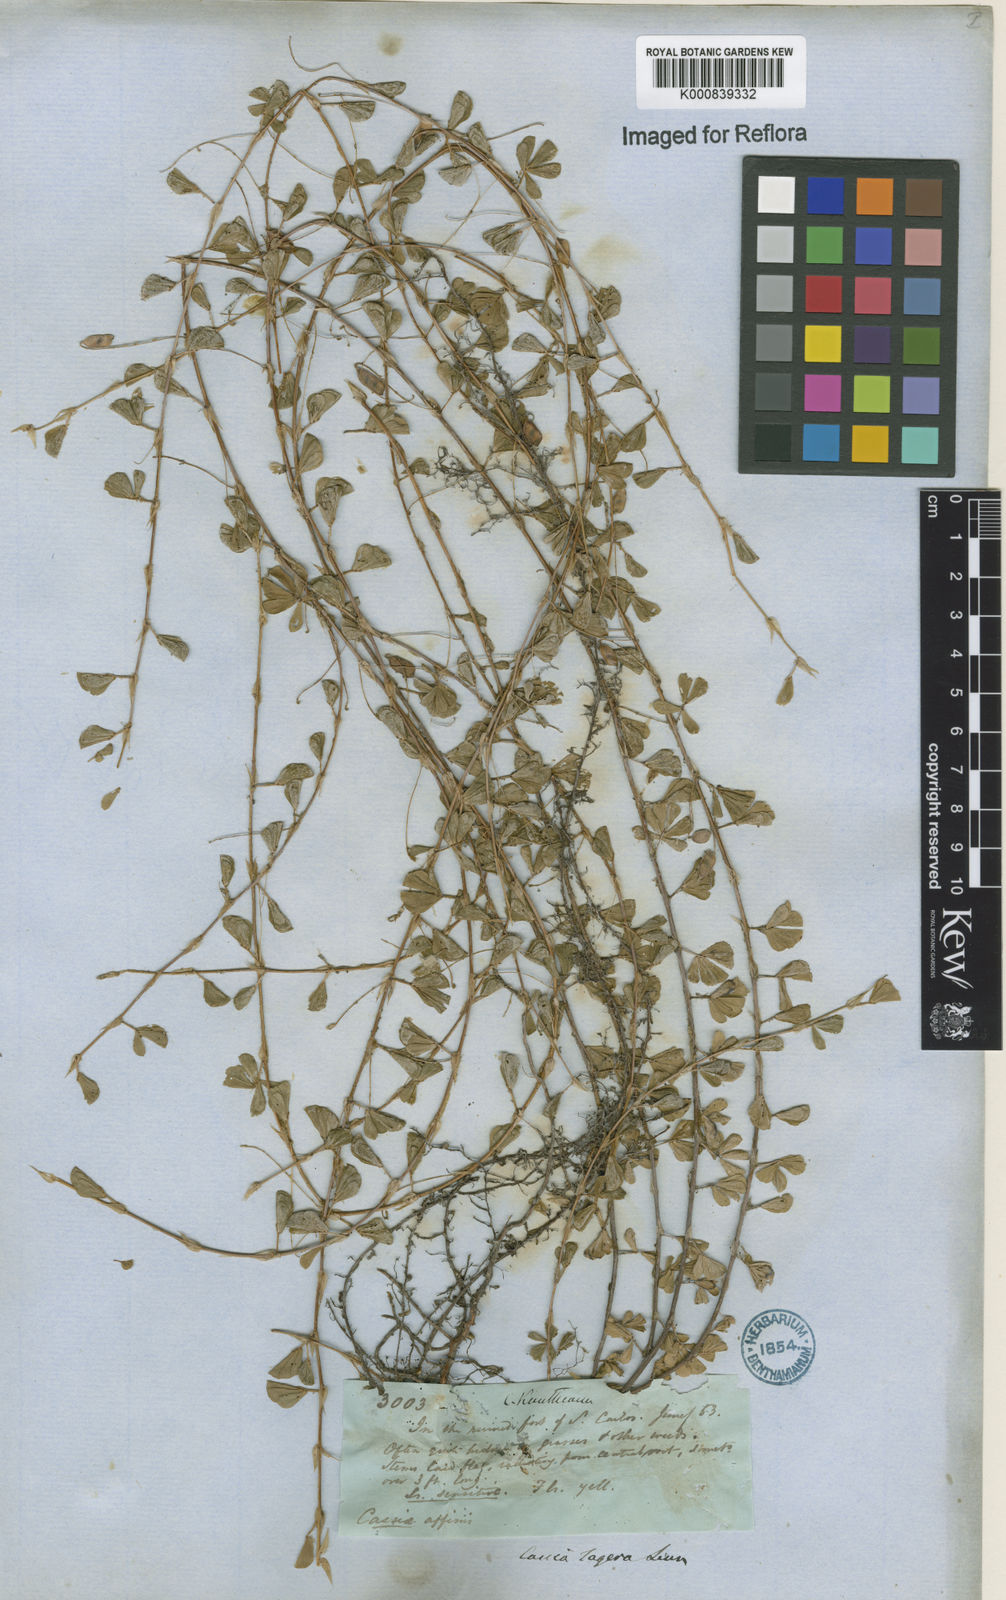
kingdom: Plantae
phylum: Tracheophyta
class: Magnoliopsida
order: Fabales
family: Fabaceae
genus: Chamaecrista
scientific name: Chamaecrista kunthiana
